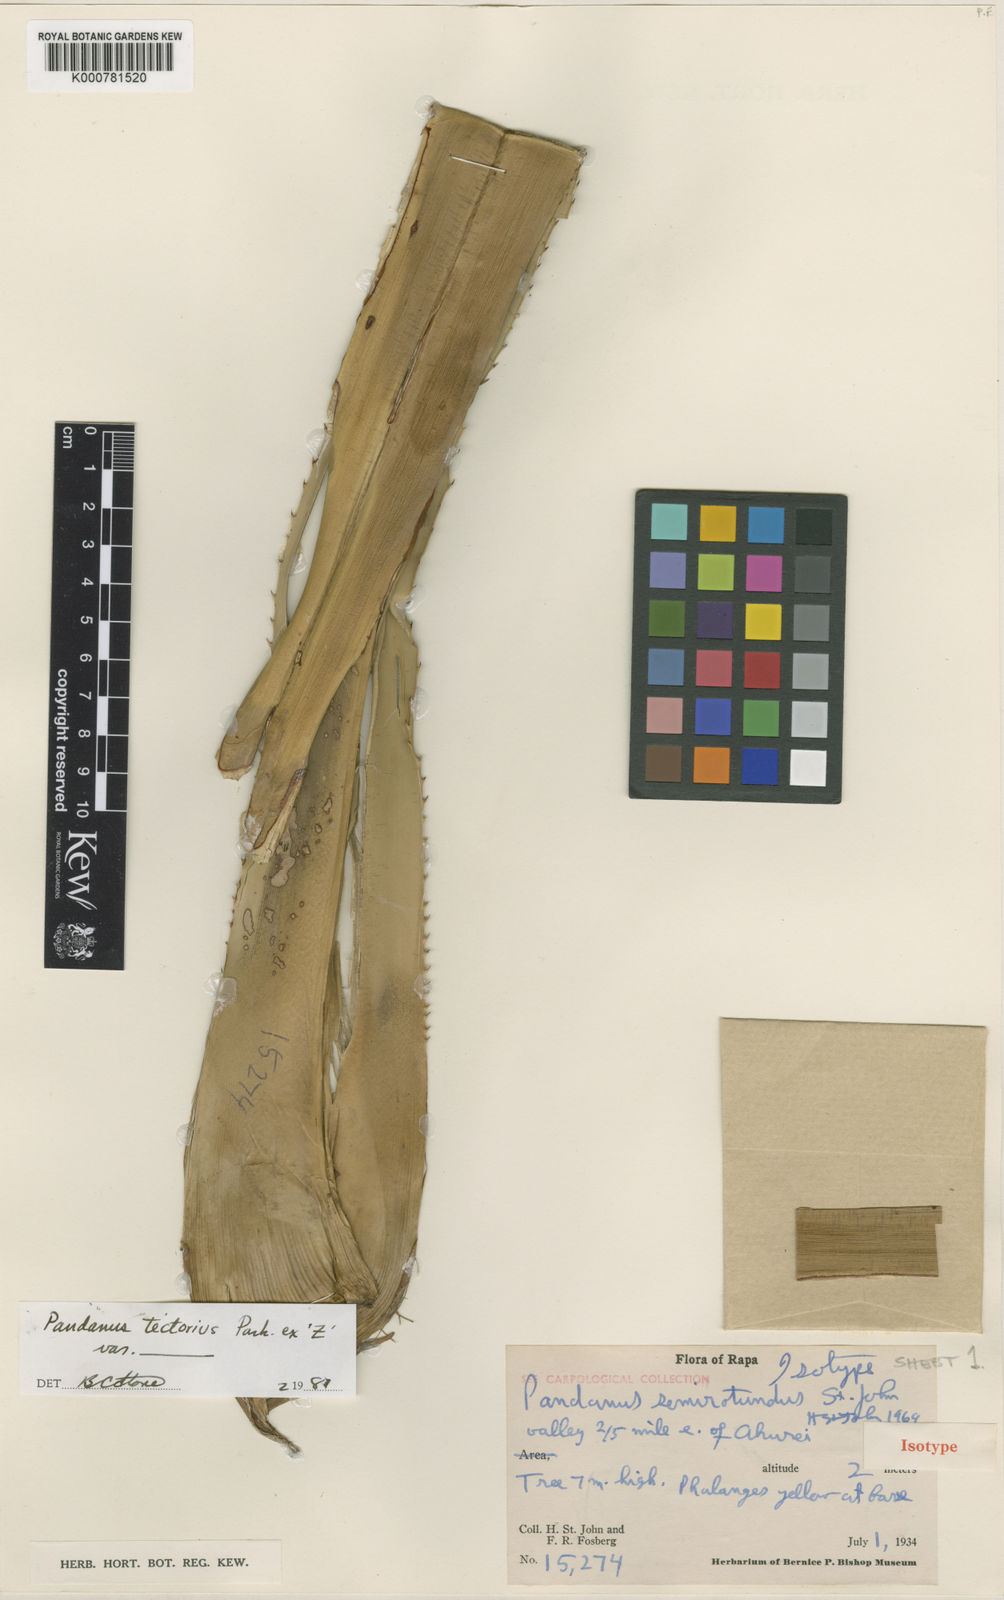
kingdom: Plantae
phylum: Tracheophyta
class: Liliopsida
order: Pandanales
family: Pandanaceae
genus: Pandanus
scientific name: Pandanus
